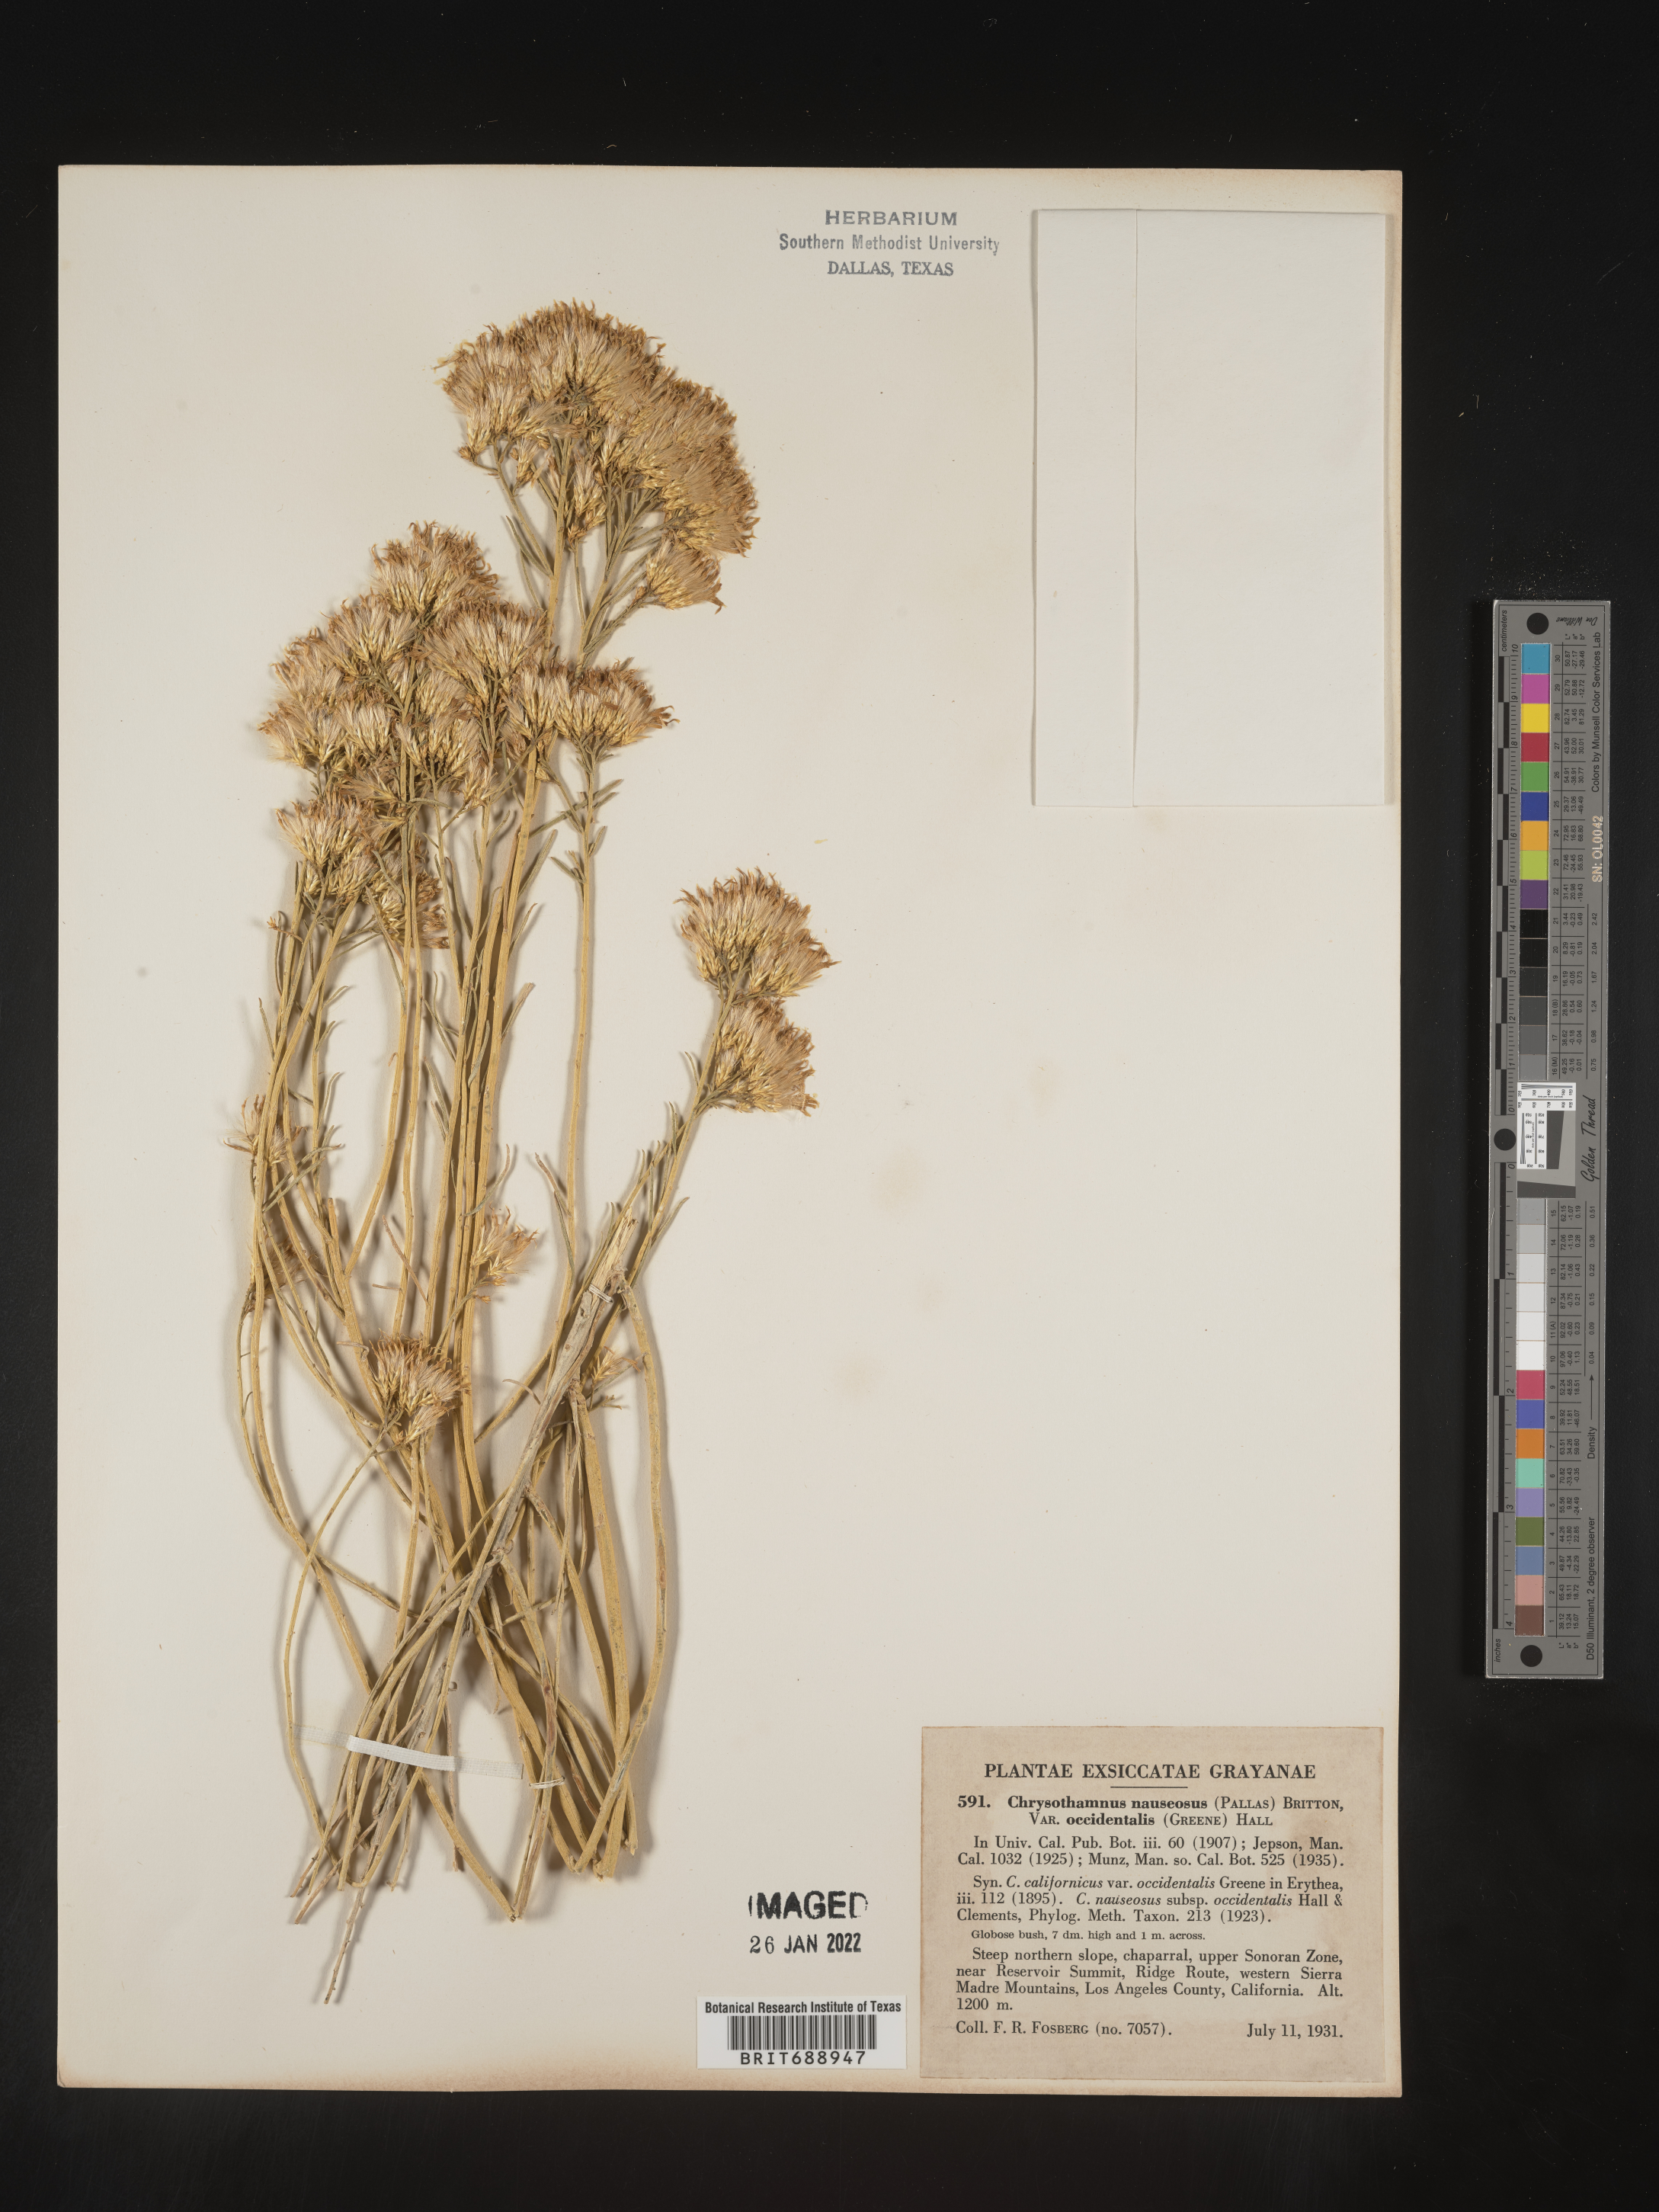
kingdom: Plantae
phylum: Tracheophyta
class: Magnoliopsida
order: Asterales
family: Asteraceae
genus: Ericameria
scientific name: Ericameria nauseosa
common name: Rubber rabbitbrush
